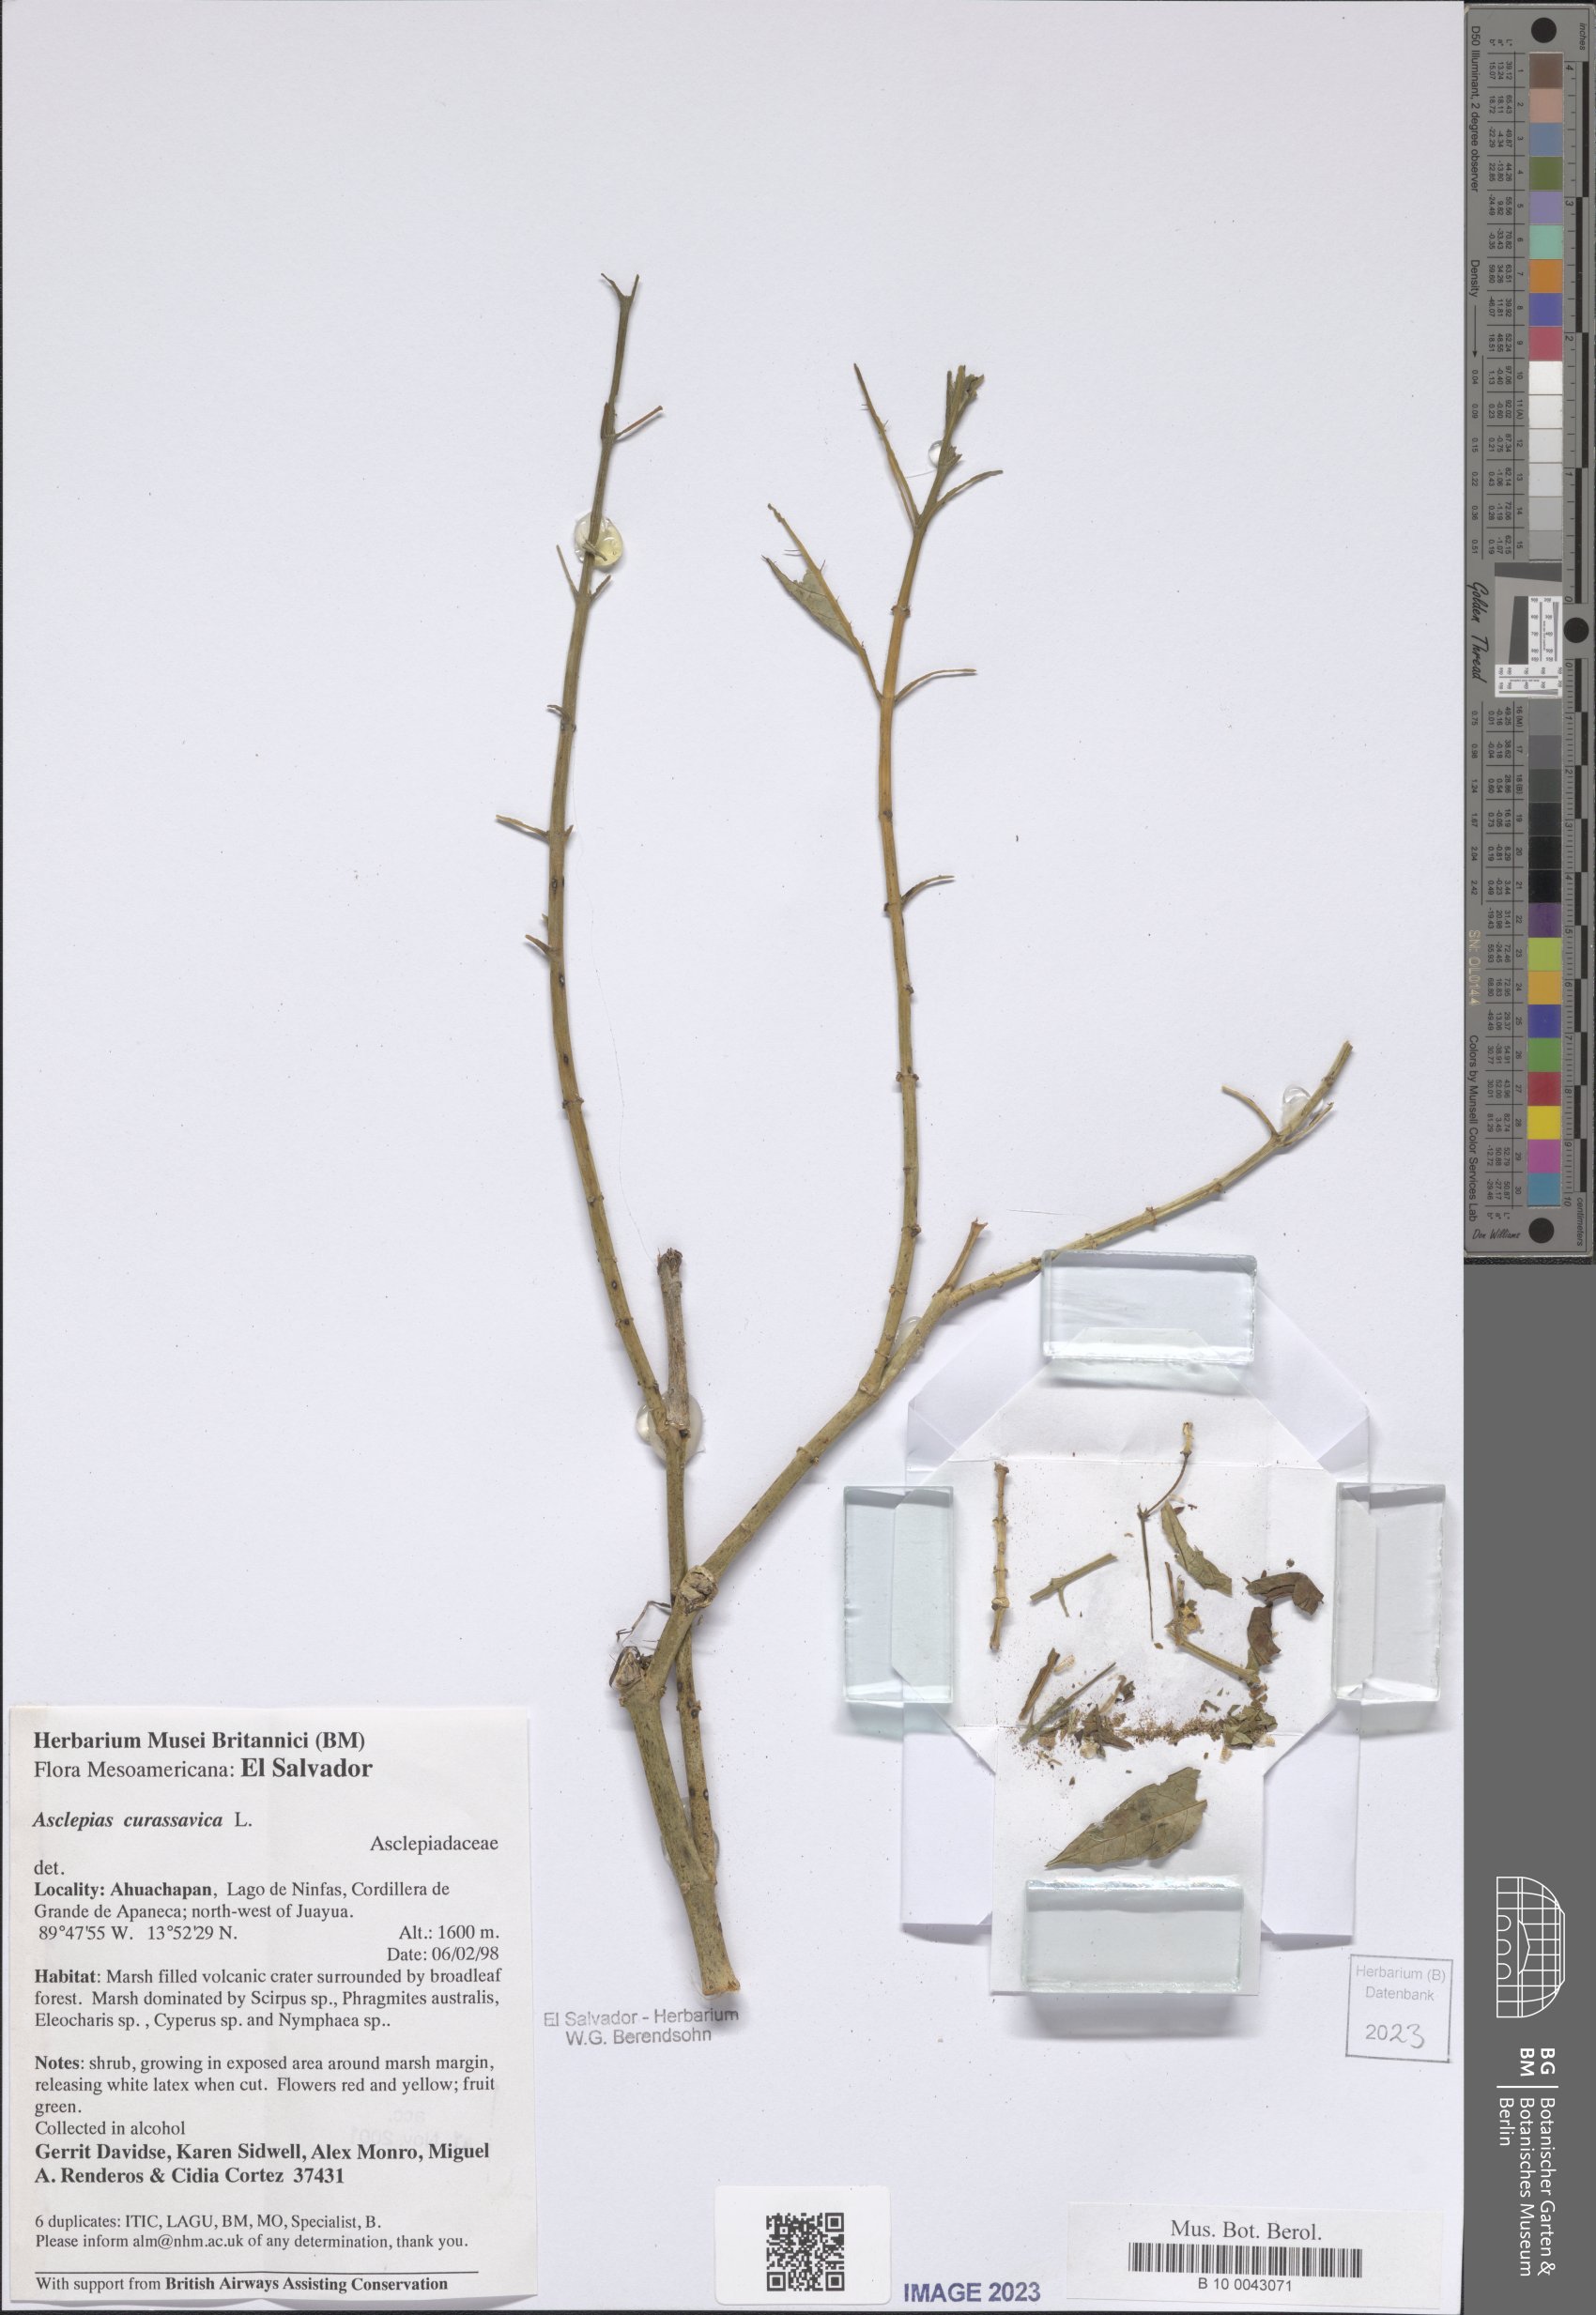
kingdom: Plantae
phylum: Tracheophyta
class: Magnoliopsida
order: Gentianales
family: Apocynaceae
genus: Asclepias
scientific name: Asclepias curassavica
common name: Bloodflower
